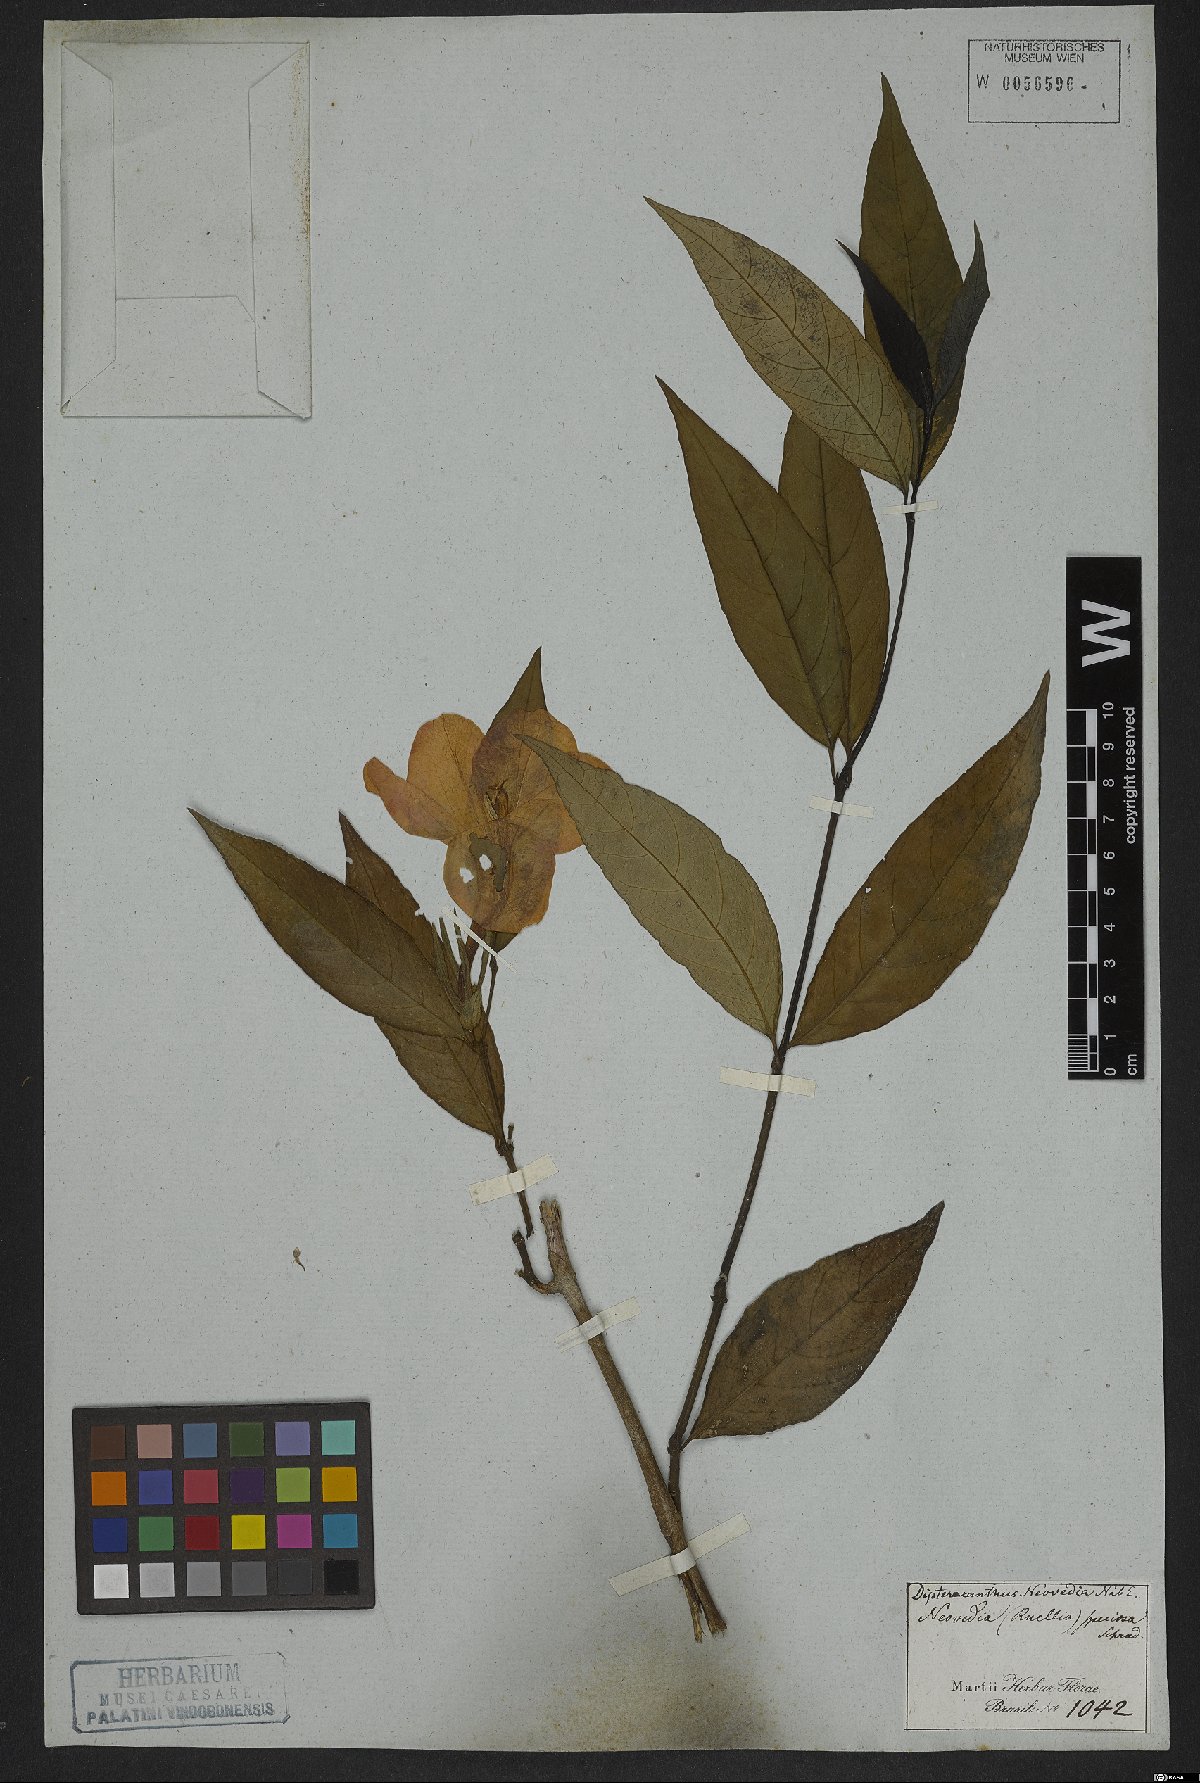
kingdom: Plantae
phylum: Tracheophyta
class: Magnoliopsida
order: Lamiales
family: Acanthaceae
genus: Ruellia
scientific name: Ruellia neowedia
